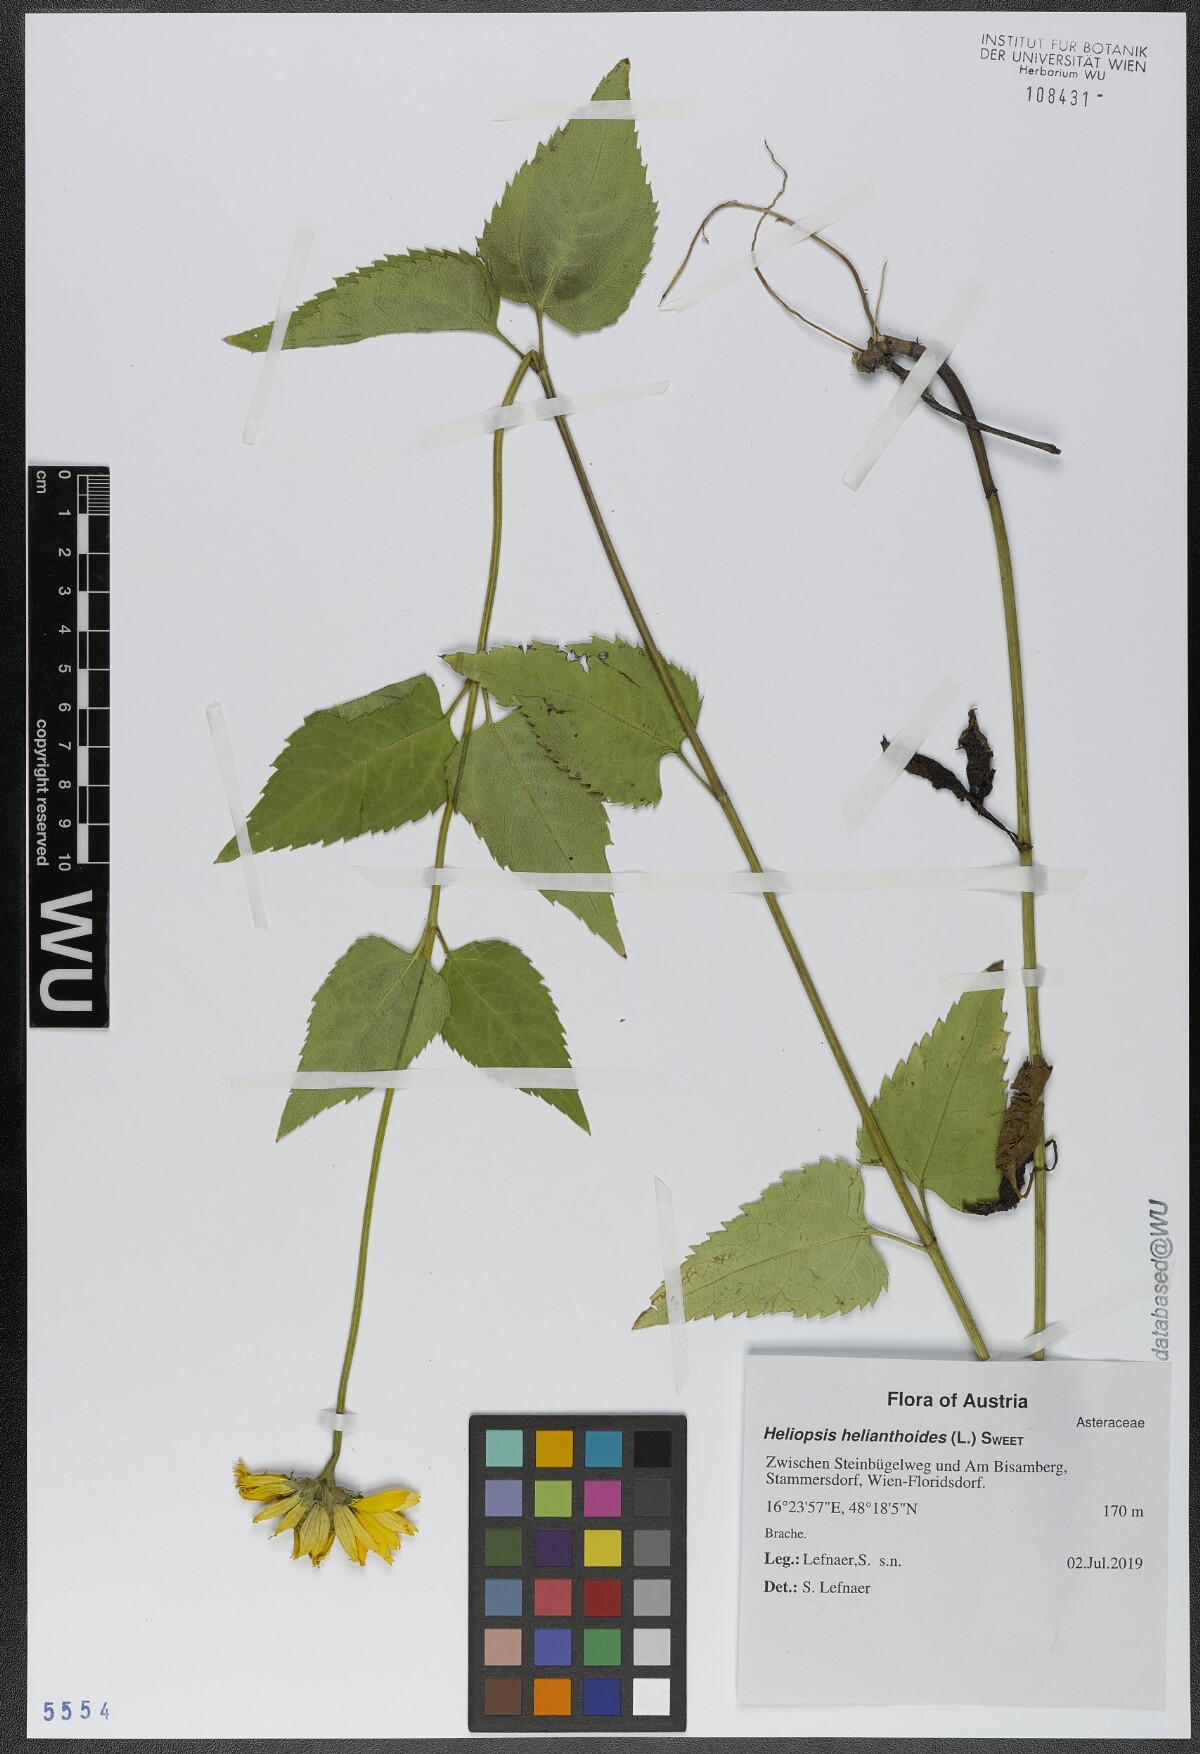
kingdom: Plantae
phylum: Tracheophyta
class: Magnoliopsida
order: Asterales
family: Asteraceae
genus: Heliopsis
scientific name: Heliopsis helianthoides
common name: False sunflower
